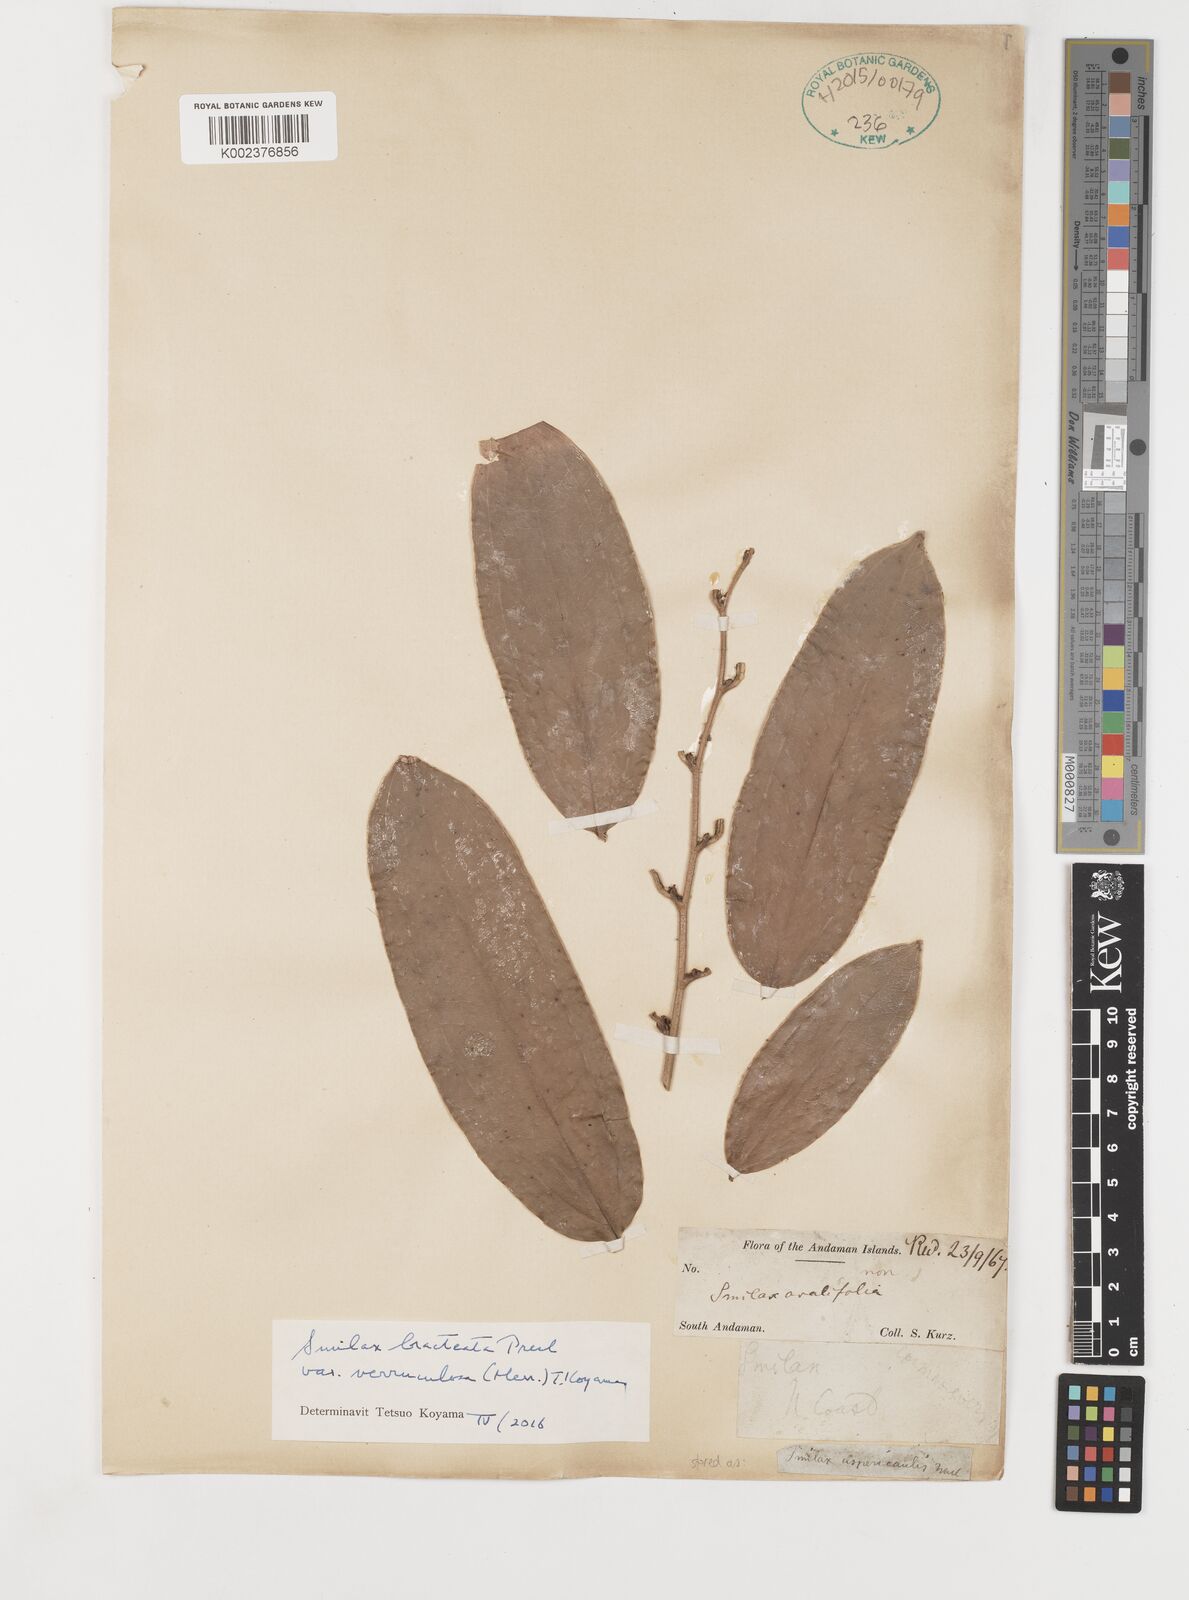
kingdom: Plantae
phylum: Tracheophyta
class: Liliopsida
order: Liliales
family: Smilacaceae
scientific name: Smilacaceae
